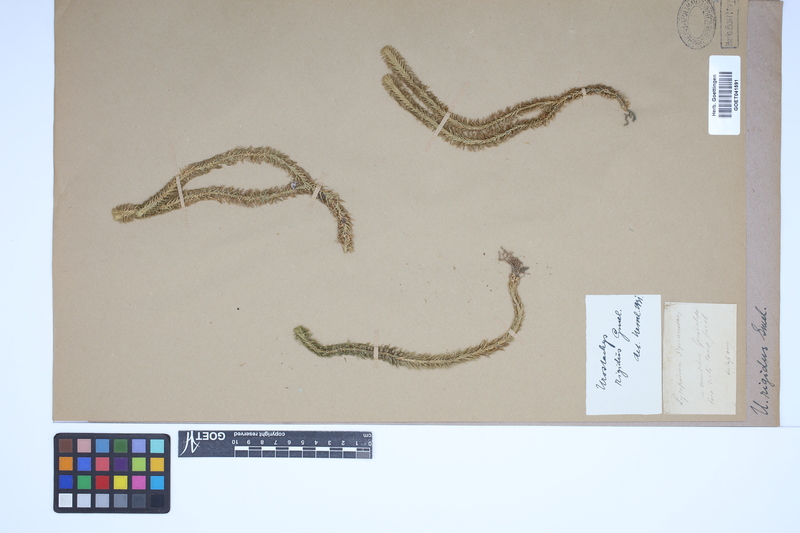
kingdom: Plantae
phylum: Tracheophyta
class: Lycopodiopsida
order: Lycopodiales
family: Lycopodiaceae
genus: Phlegmariurus
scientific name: Phlegmariurus reflexus
